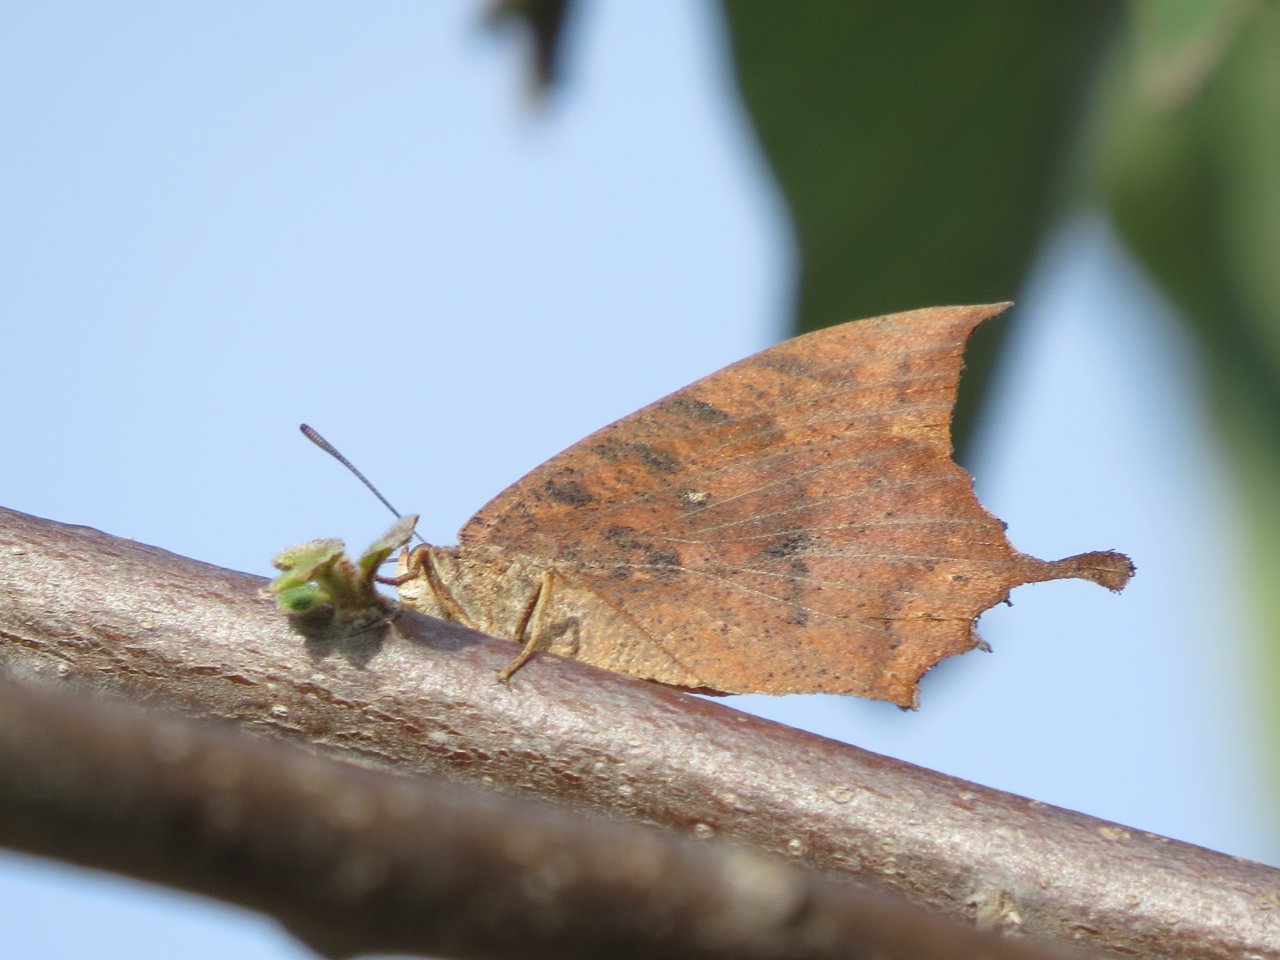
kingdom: Animalia
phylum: Arthropoda
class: Insecta
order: Lepidoptera
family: Nymphalidae
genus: Anaea
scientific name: Anaea aidea
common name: Tropical Leafwing
